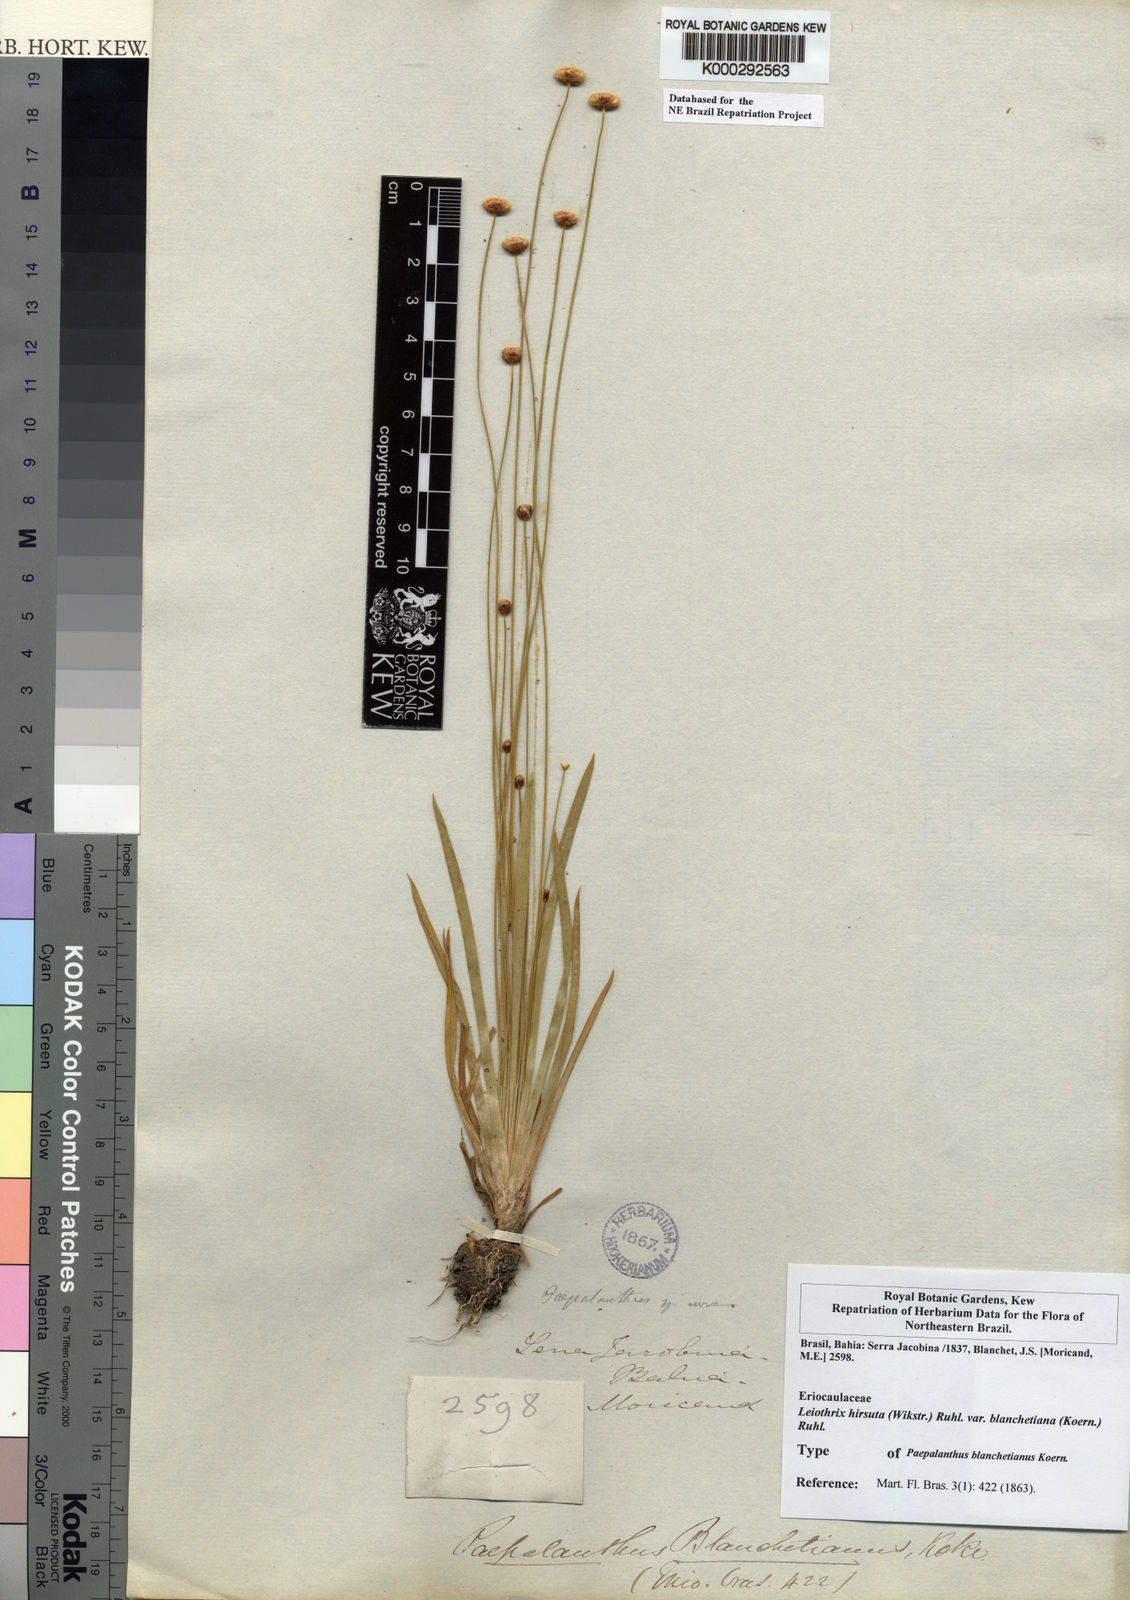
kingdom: Plantae
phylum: Tracheophyta
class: Liliopsida
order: Poales
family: Eriocaulaceae
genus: Leiothrix
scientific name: Leiothrix hirsuta
